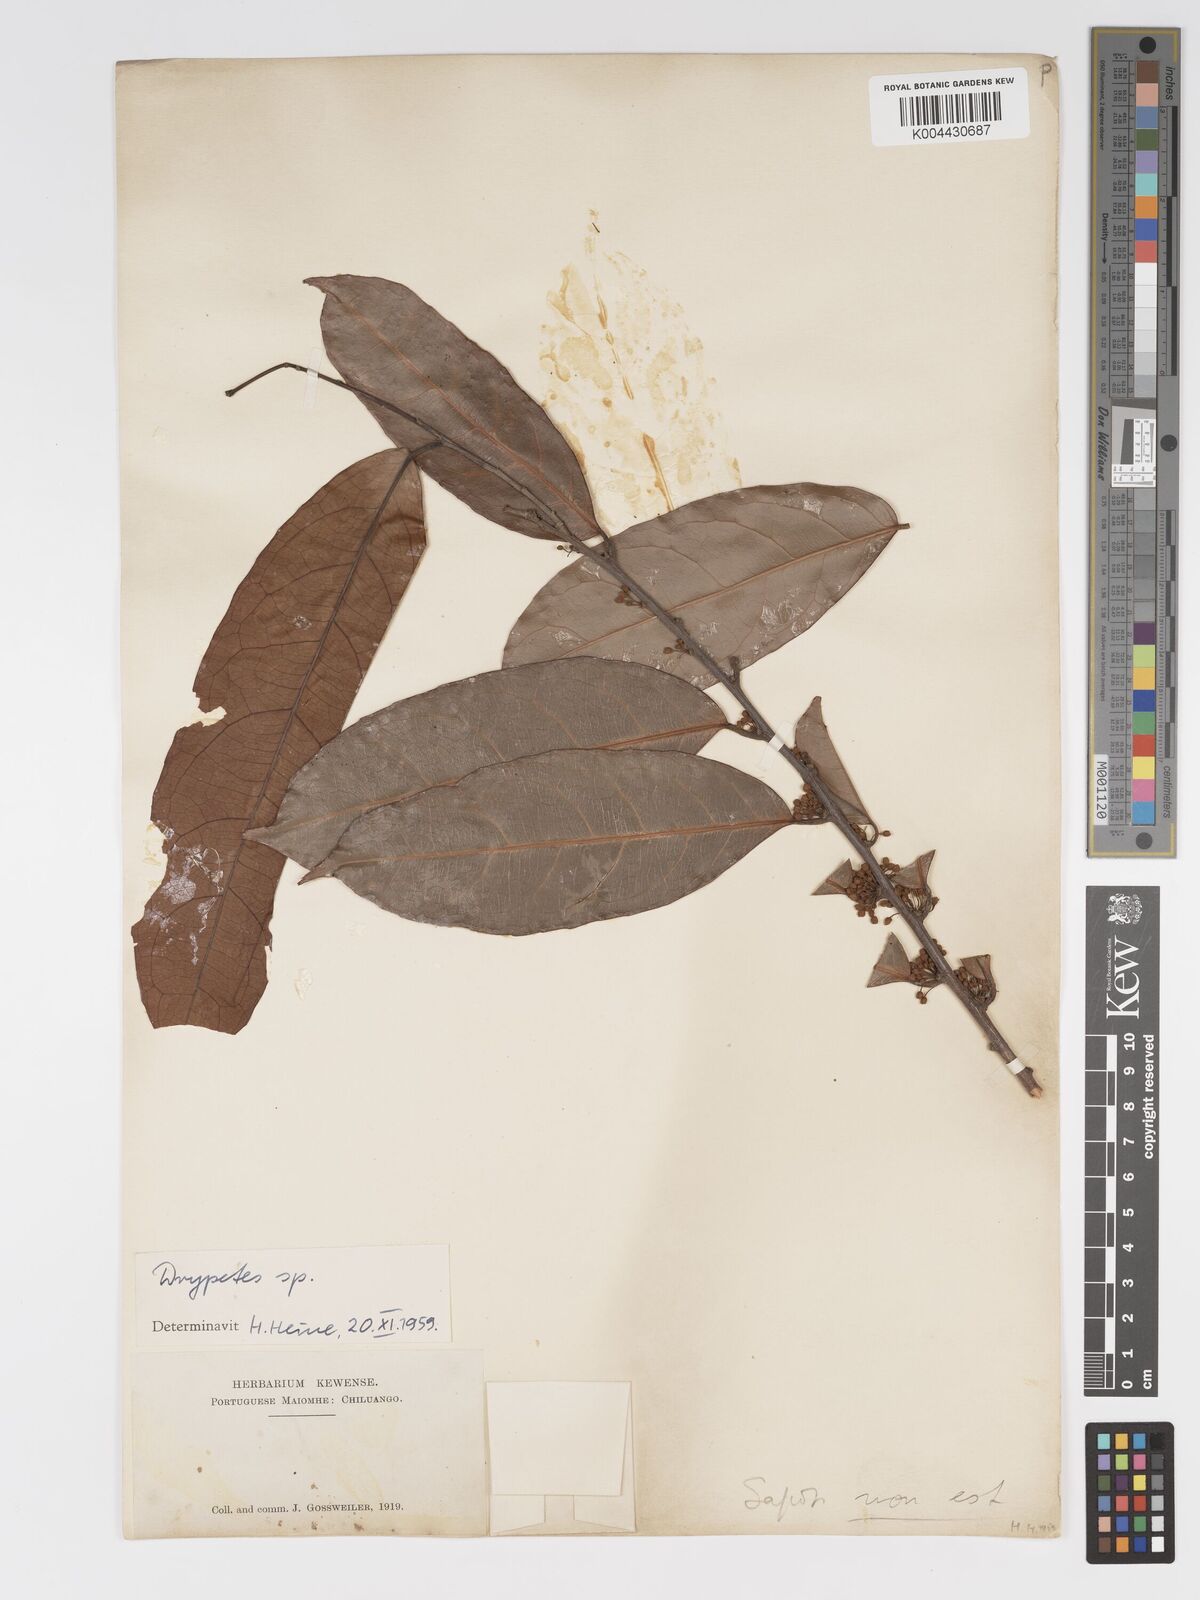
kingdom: Plantae
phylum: Tracheophyta
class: Magnoliopsida
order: Malpighiales
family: Putranjivaceae
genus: Drypetes
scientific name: Drypetes gabonensis
